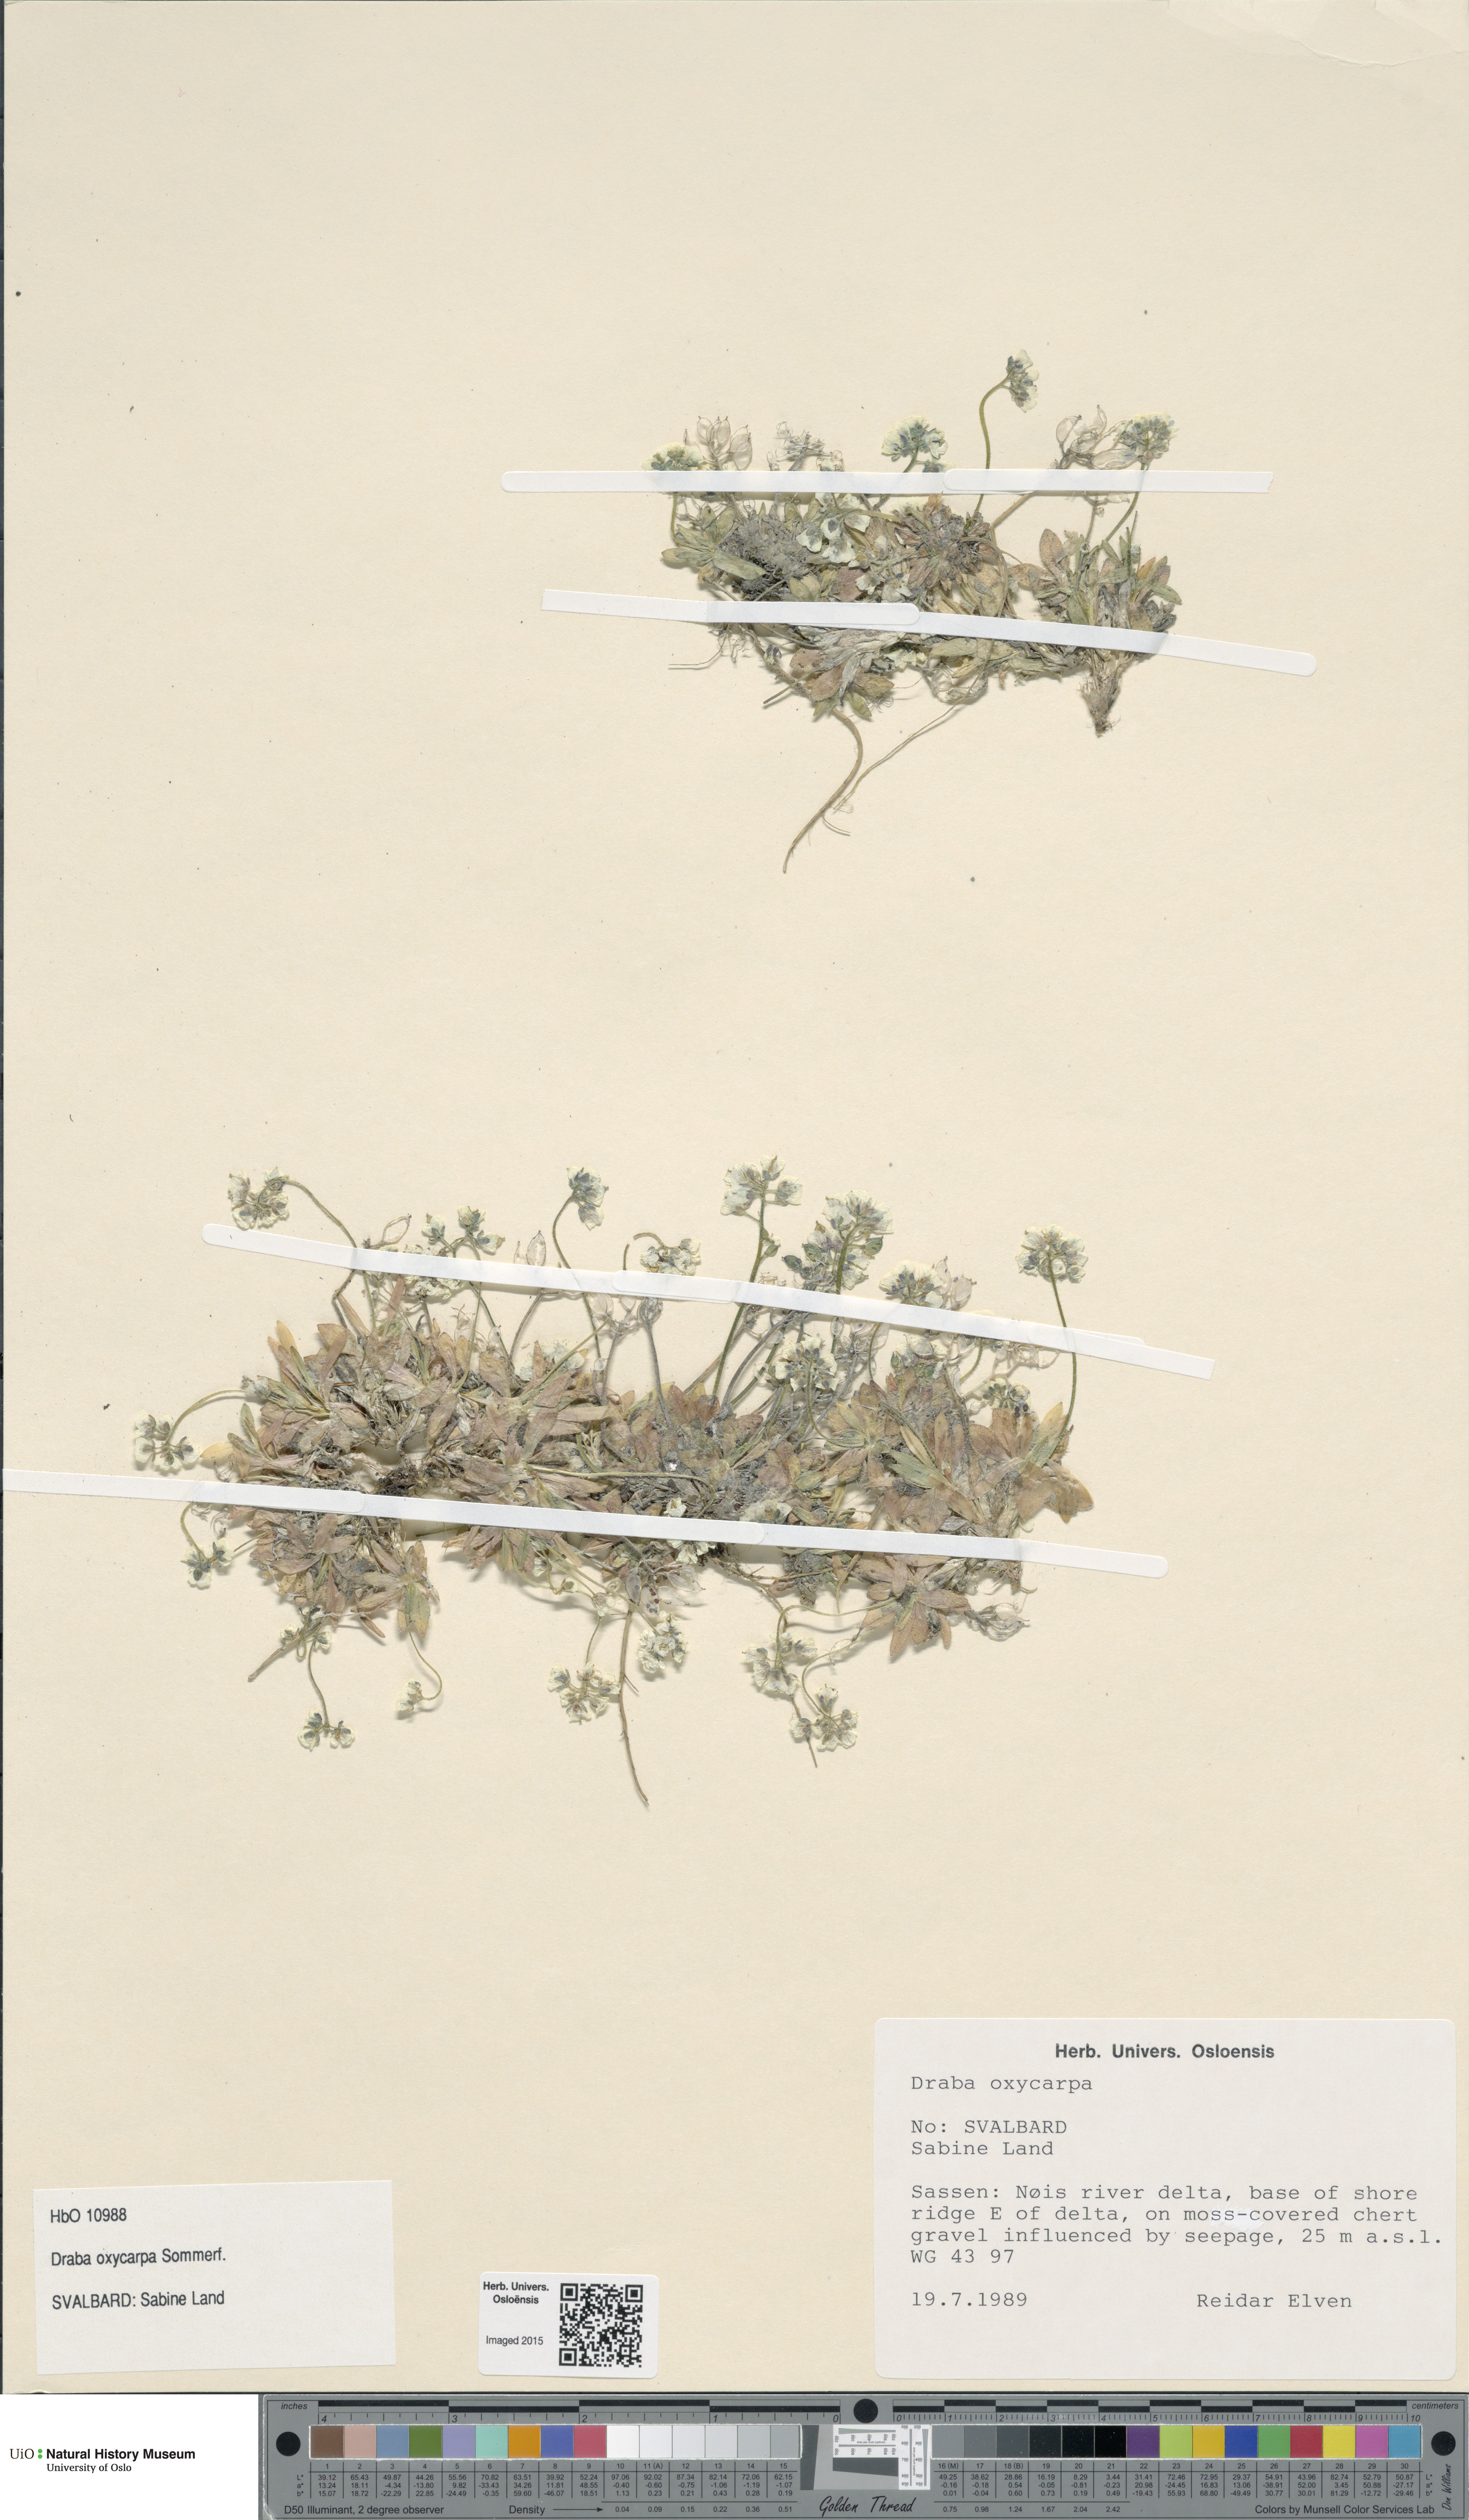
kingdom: Plantae
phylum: Tracheophyta
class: Magnoliopsida
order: Brassicales
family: Brassicaceae
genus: Draba
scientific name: Draba oxycarpa
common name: Sharp-fruited whitlow-grass
